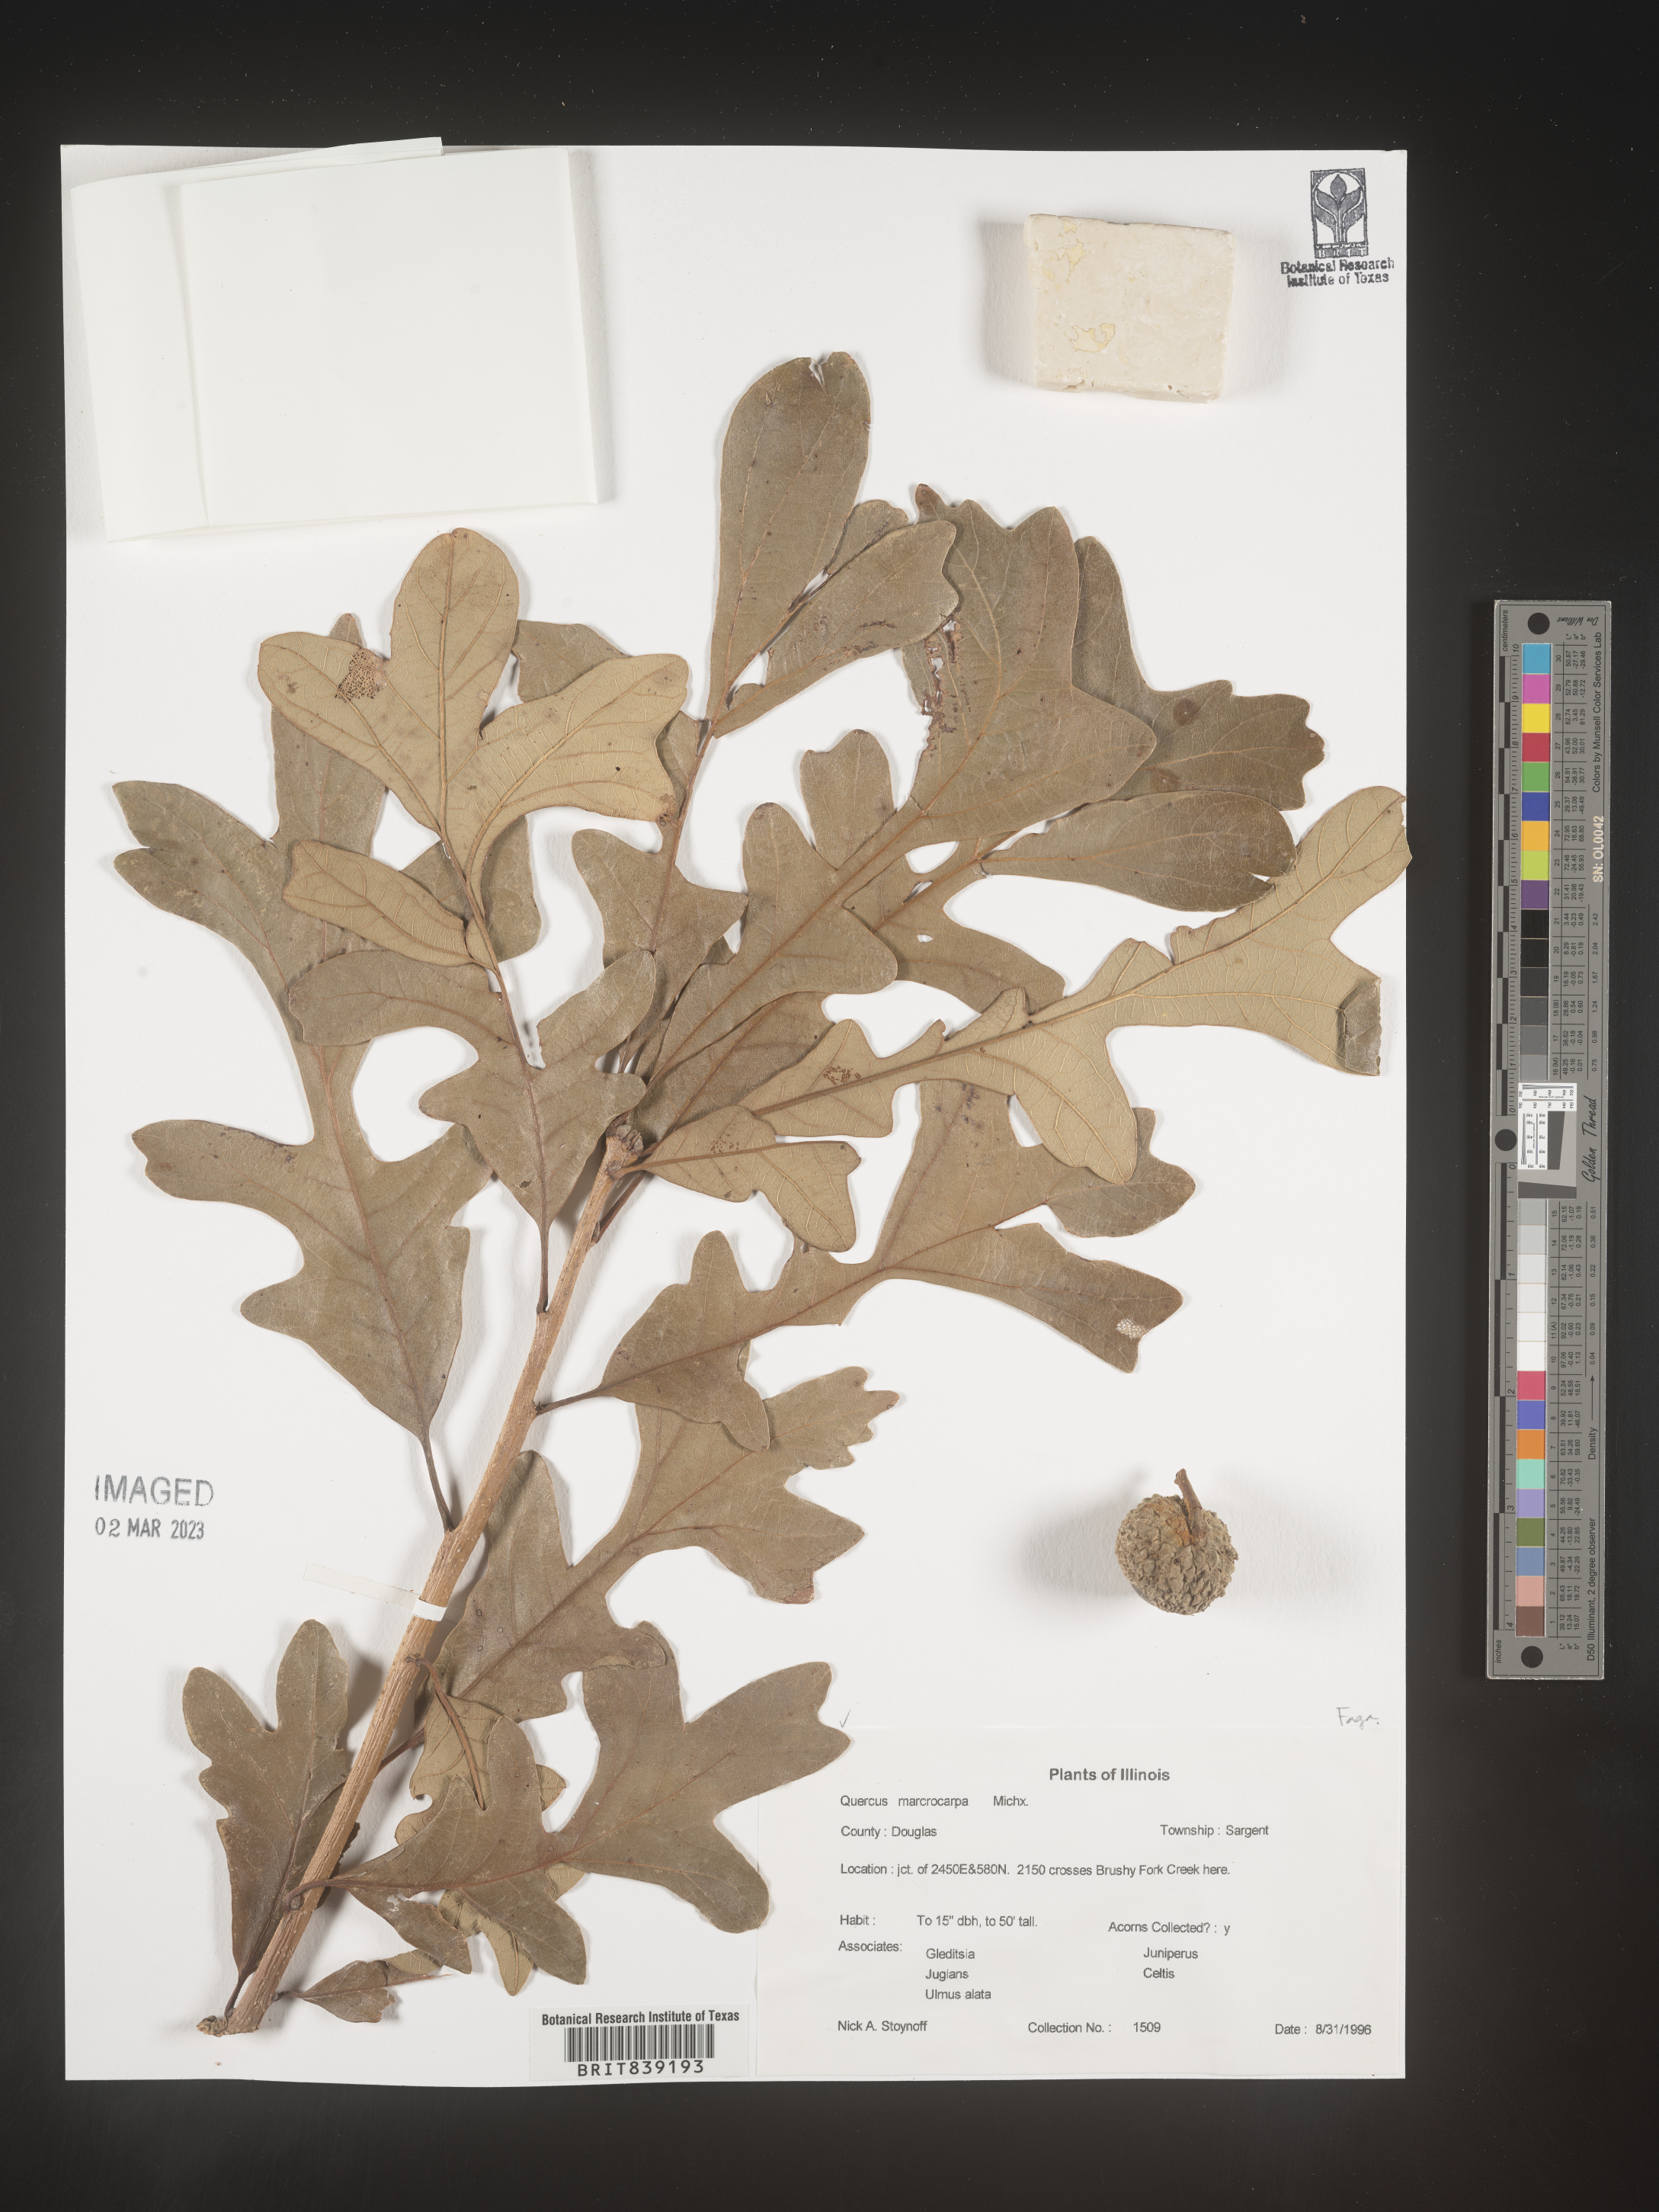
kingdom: Plantae
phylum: Tracheophyta
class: Magnoliopsida
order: Fagales
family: Fagaceae
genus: Quercus
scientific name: Quercus macrocarpa
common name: Bur oak
